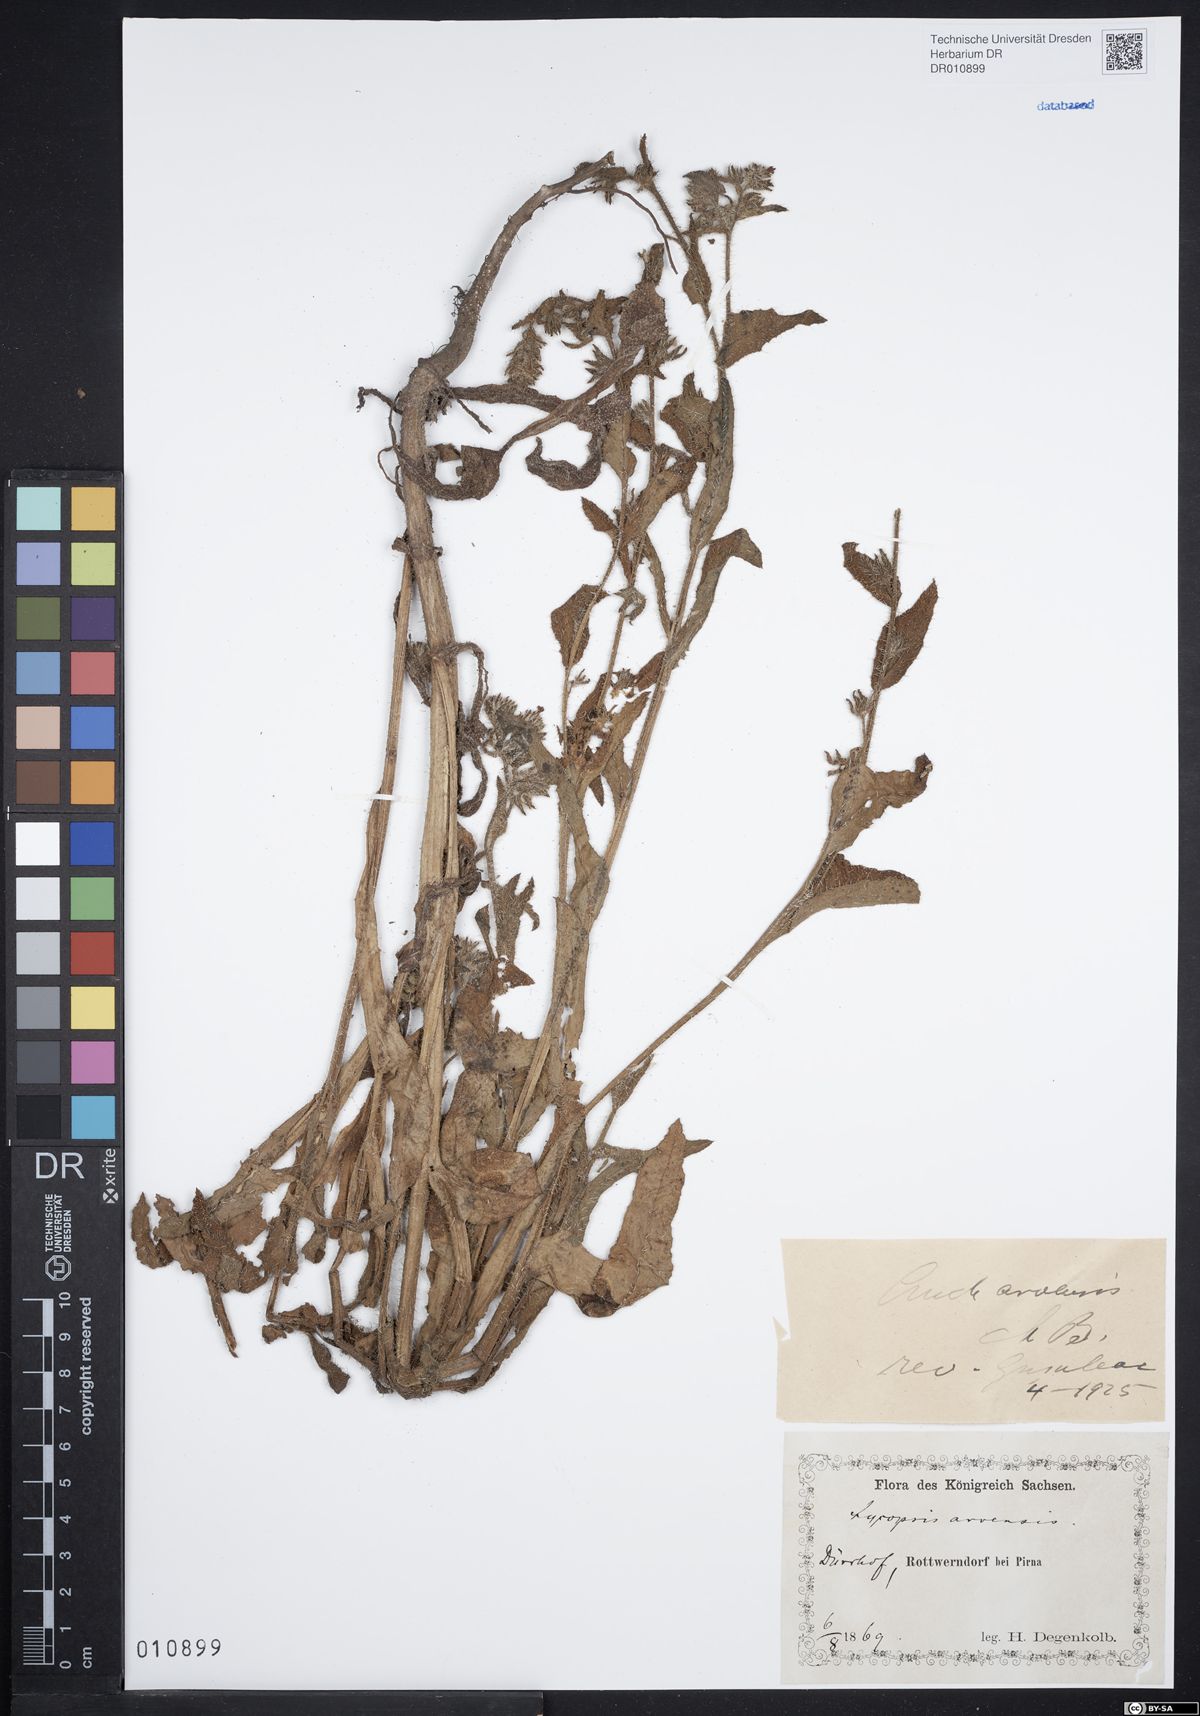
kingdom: Plantae
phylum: Tracheophyta
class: Magnoliopsida
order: Boraginales
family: Boraginaceae
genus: Lycopsis
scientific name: Lycopsis arvensis
